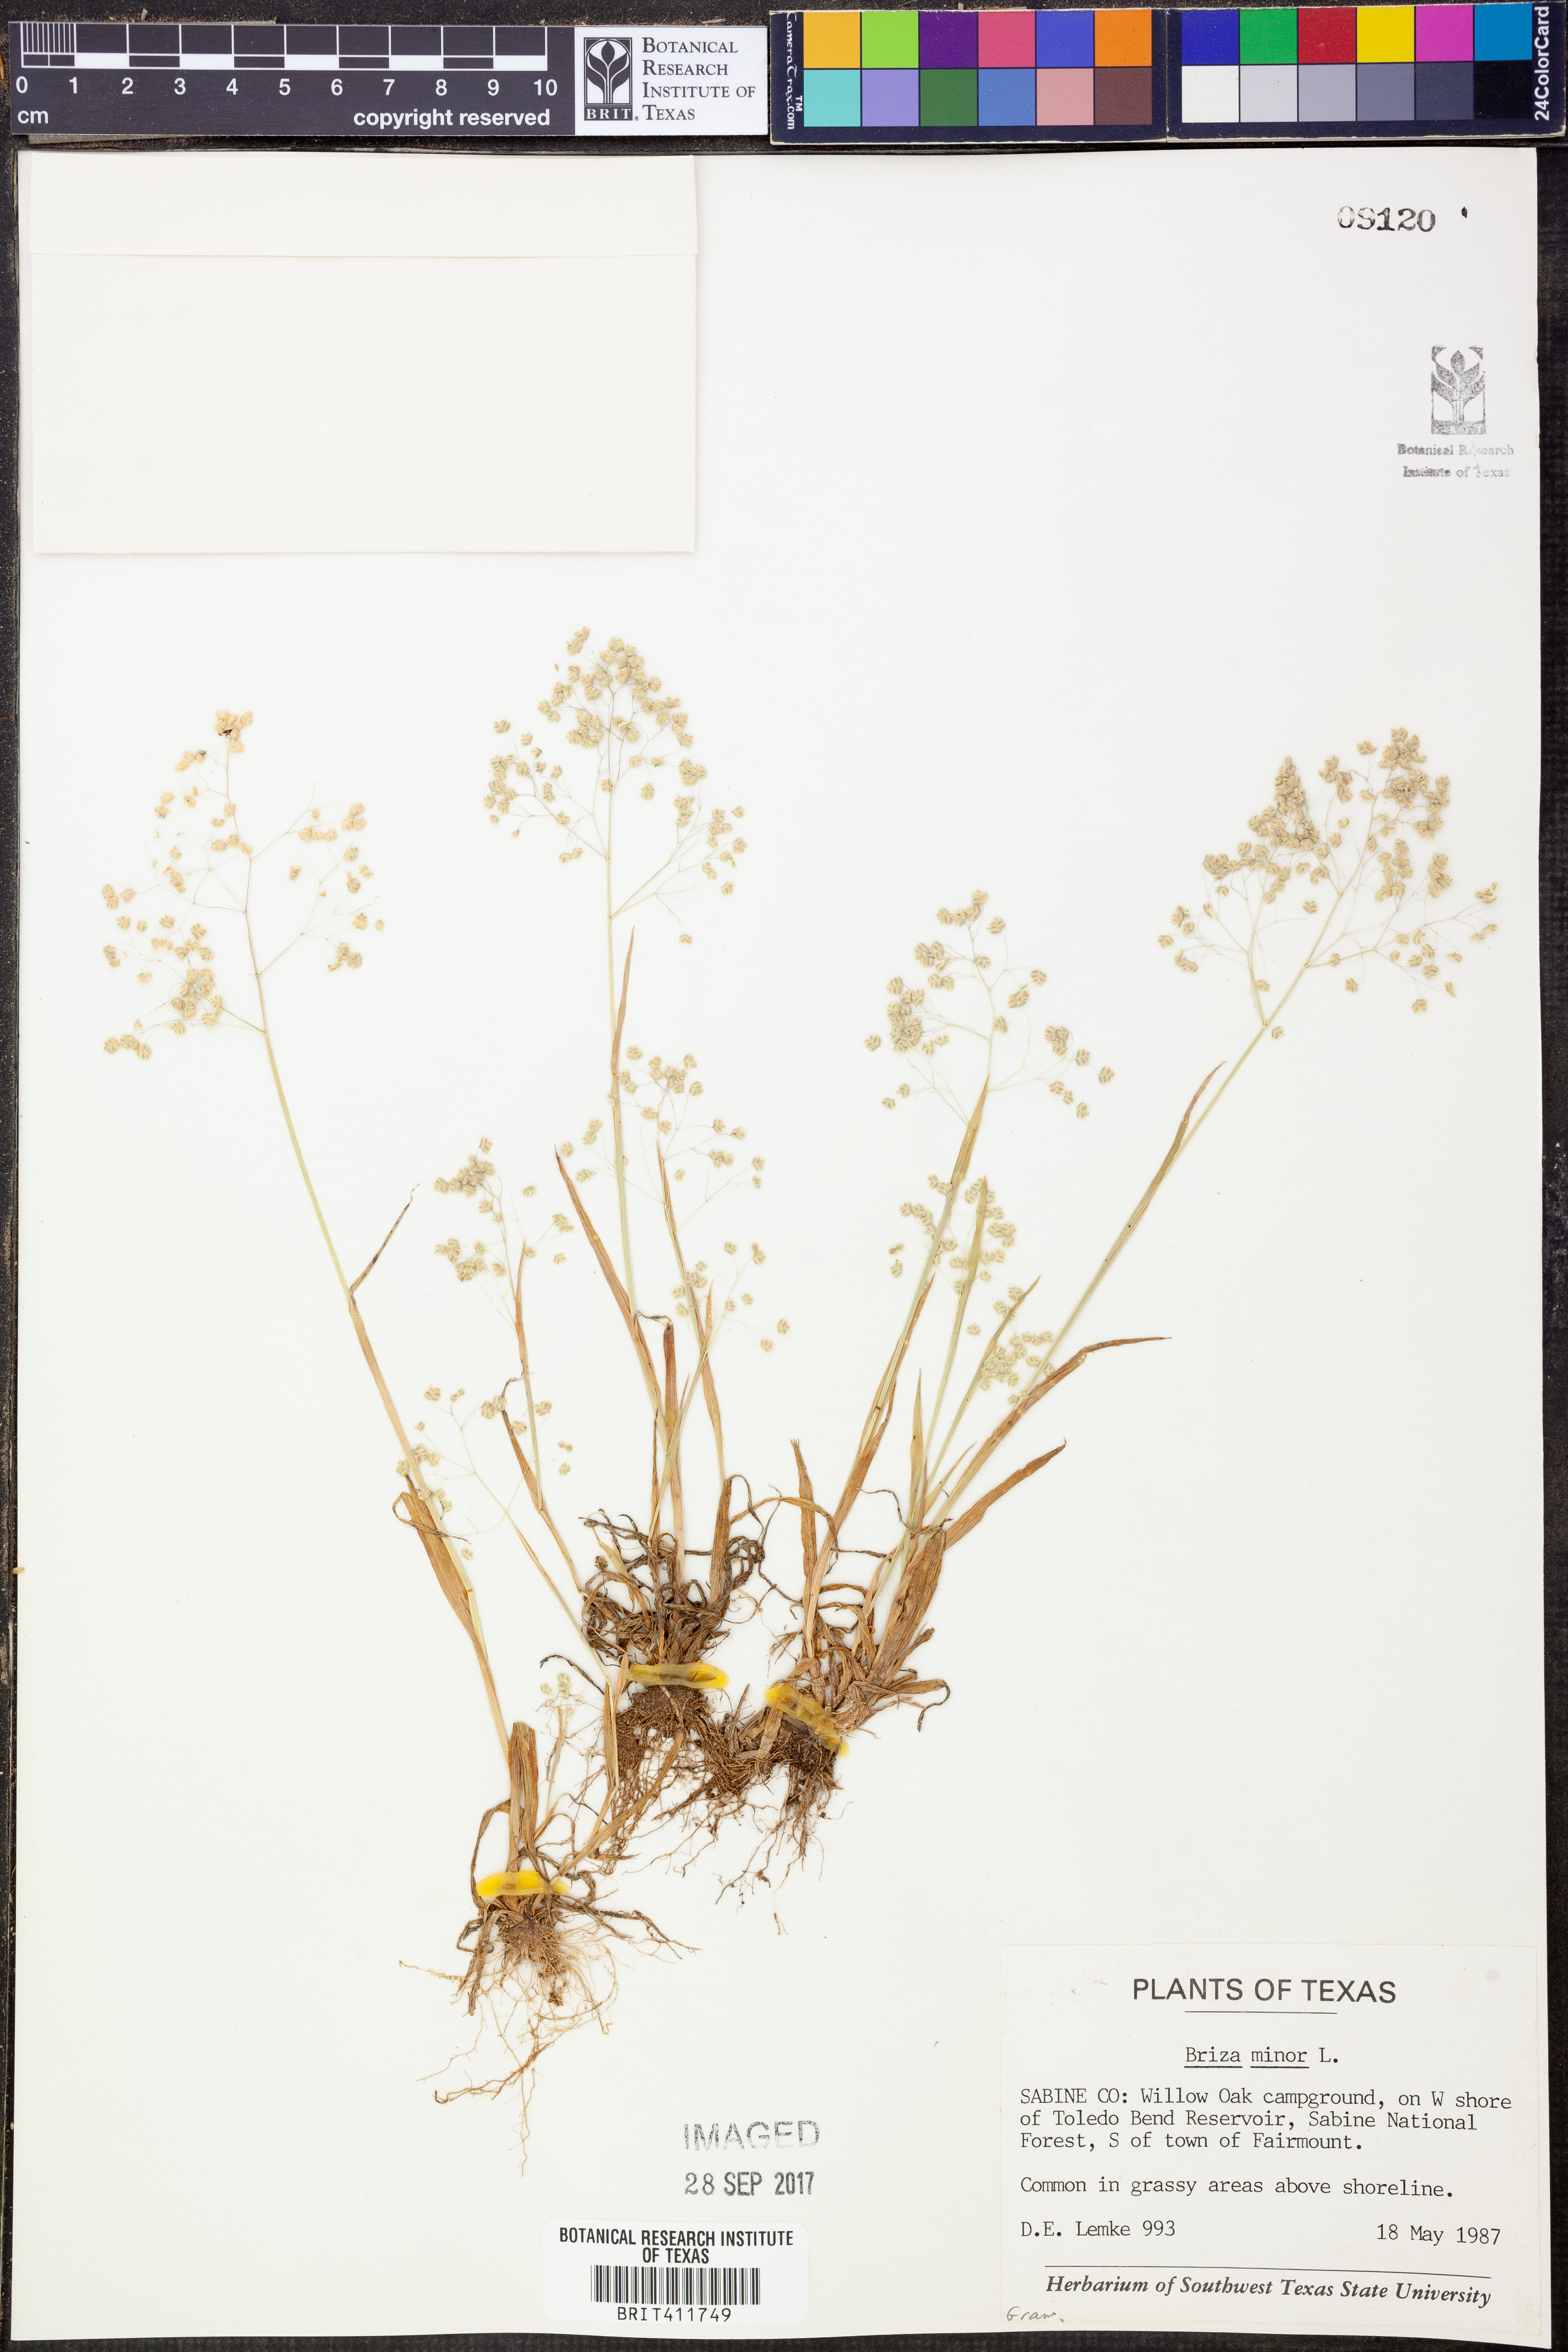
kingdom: Plantae
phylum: Tracheophyta
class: Liliopsida
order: Poales
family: Poaceae
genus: Briza
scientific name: Briza minor
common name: Lesser quaking-grass
